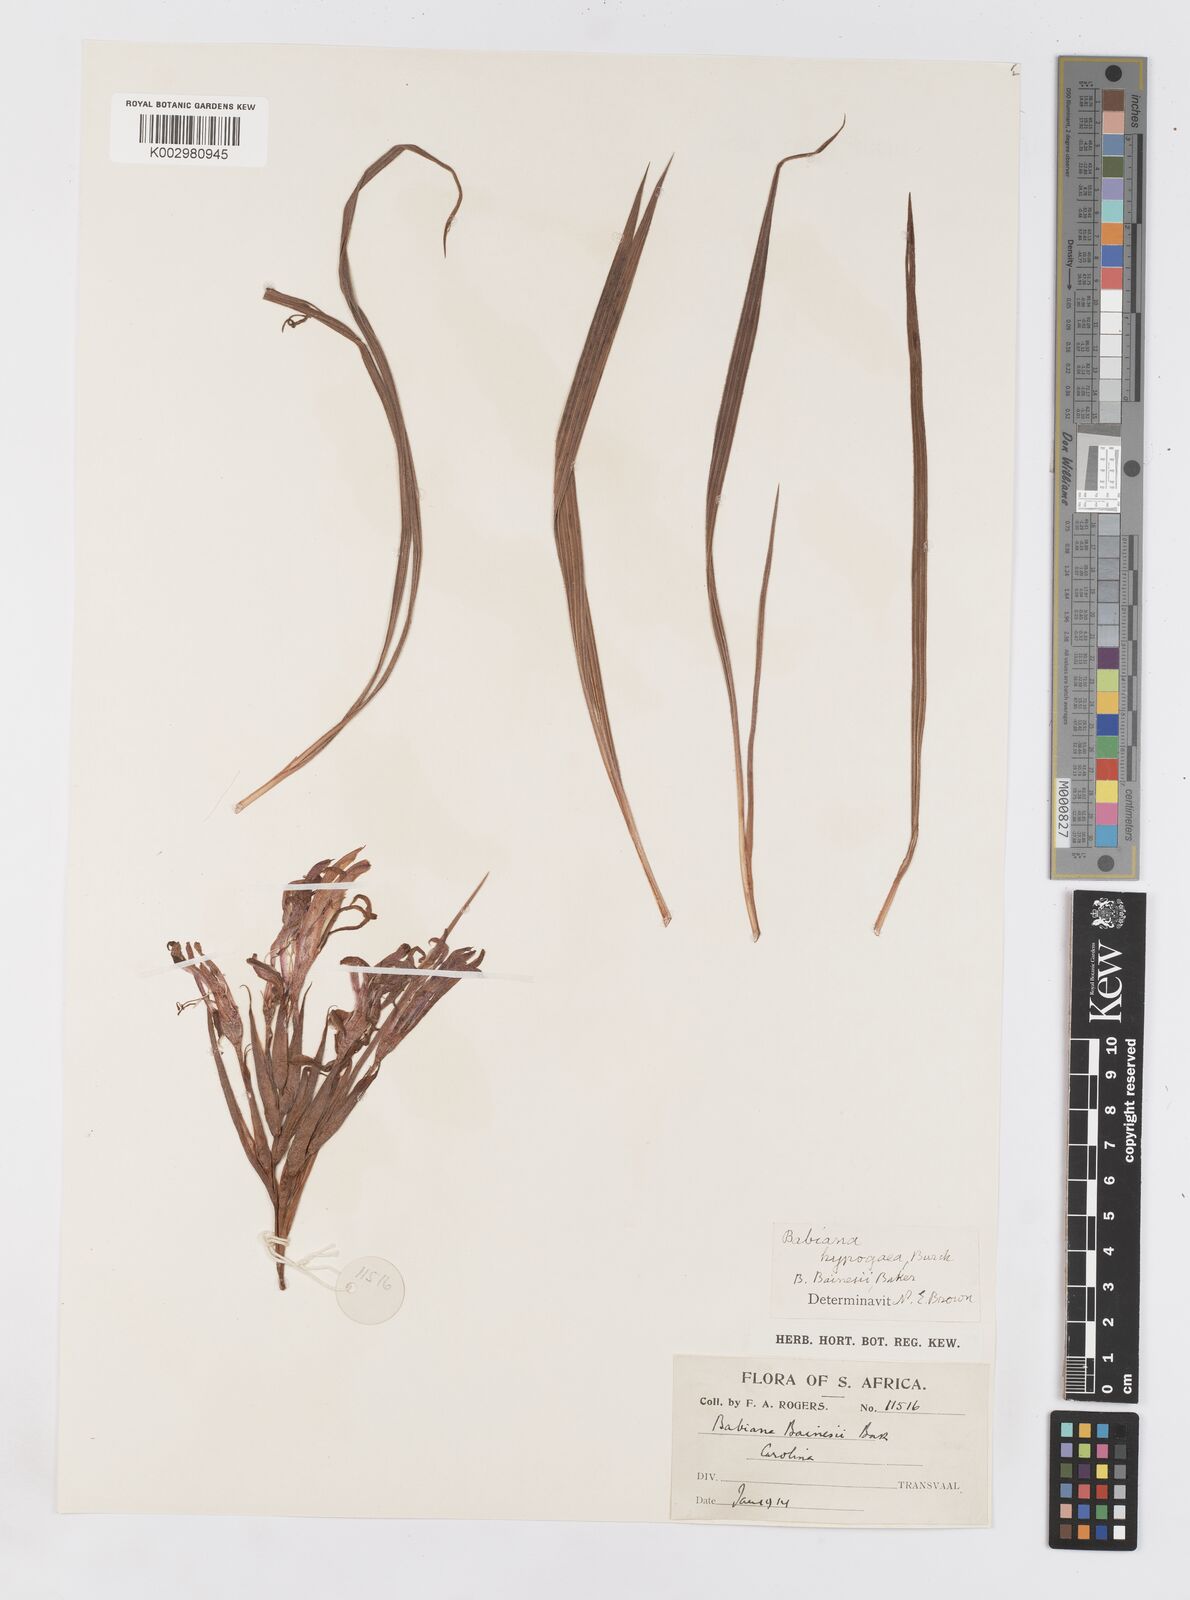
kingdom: Plantae
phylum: Tracheophyta
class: Liliopsida
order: Asparagales
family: Iridaceae
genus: Babiana
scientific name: Babiana bainesii
